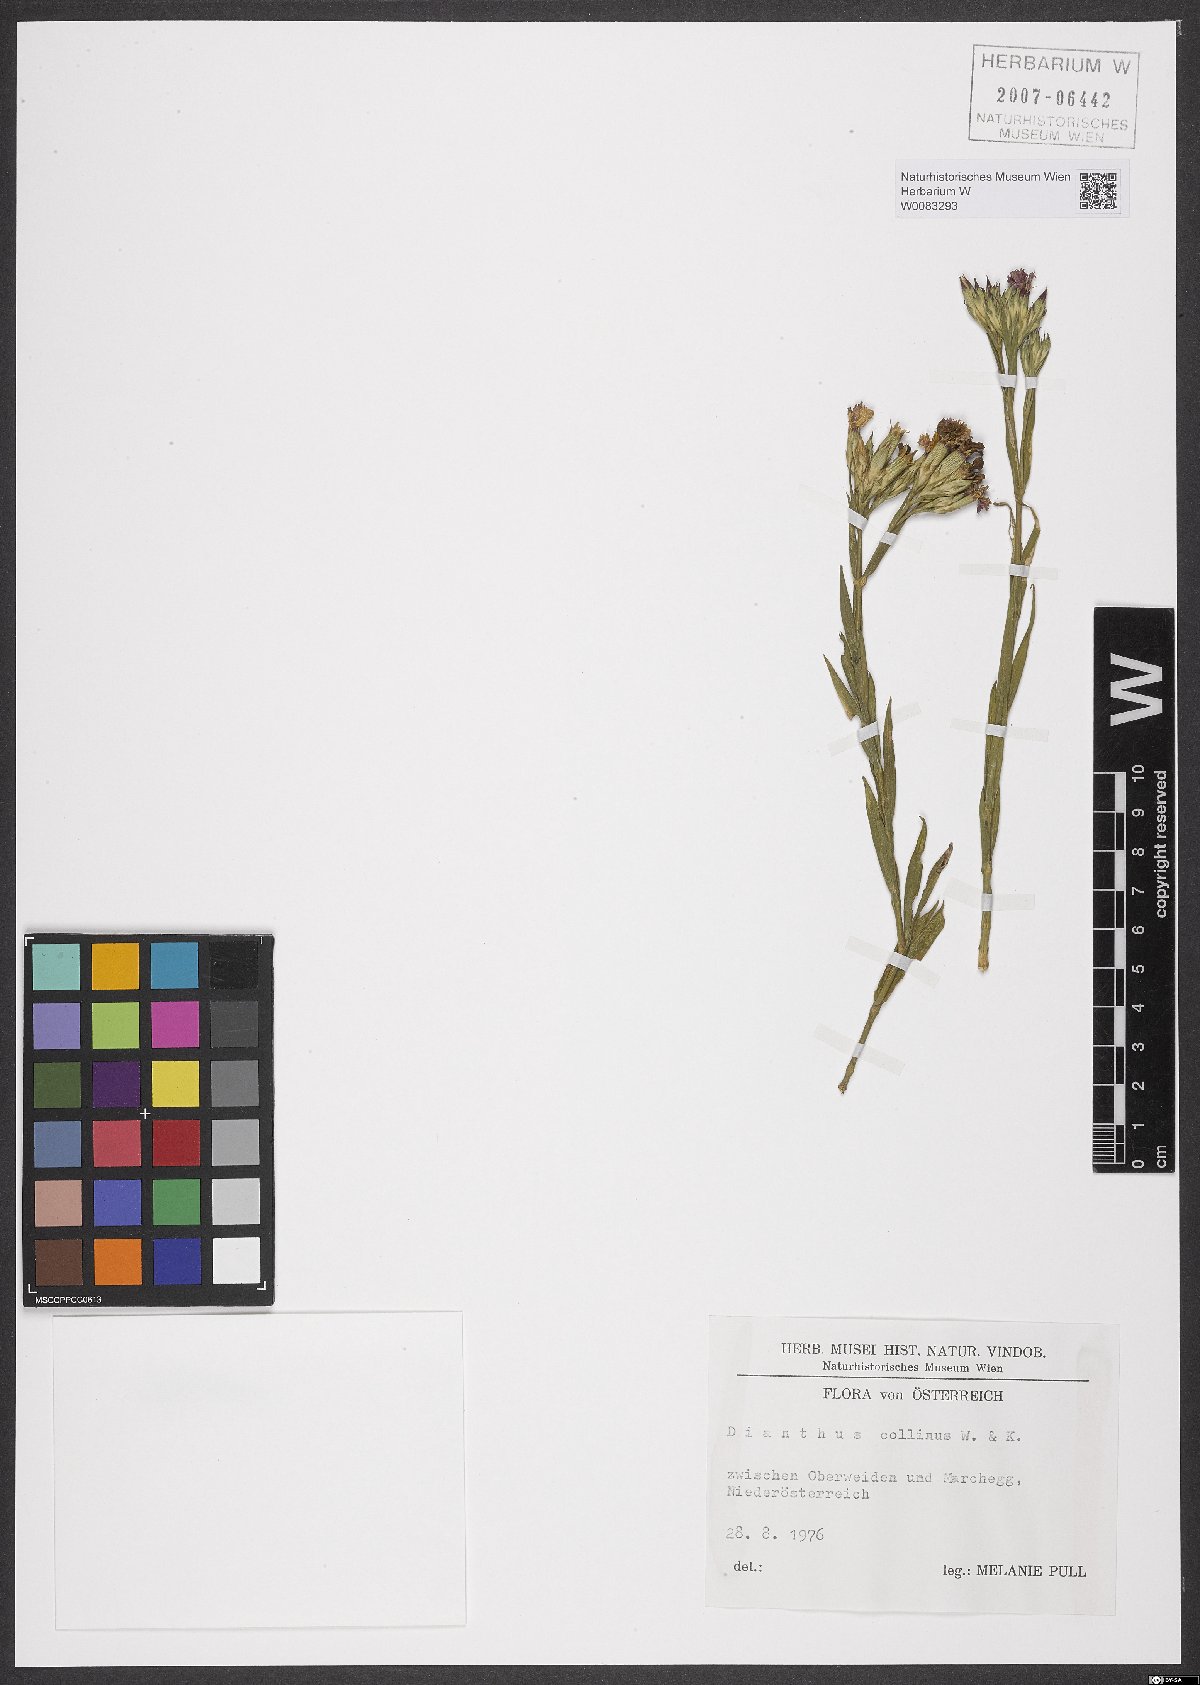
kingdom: Plantae
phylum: Tracheophyta
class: Magnoliopsida
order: Caryophyllales
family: Caryophyllaceae
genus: Dianthus
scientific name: Dianthus collinus
